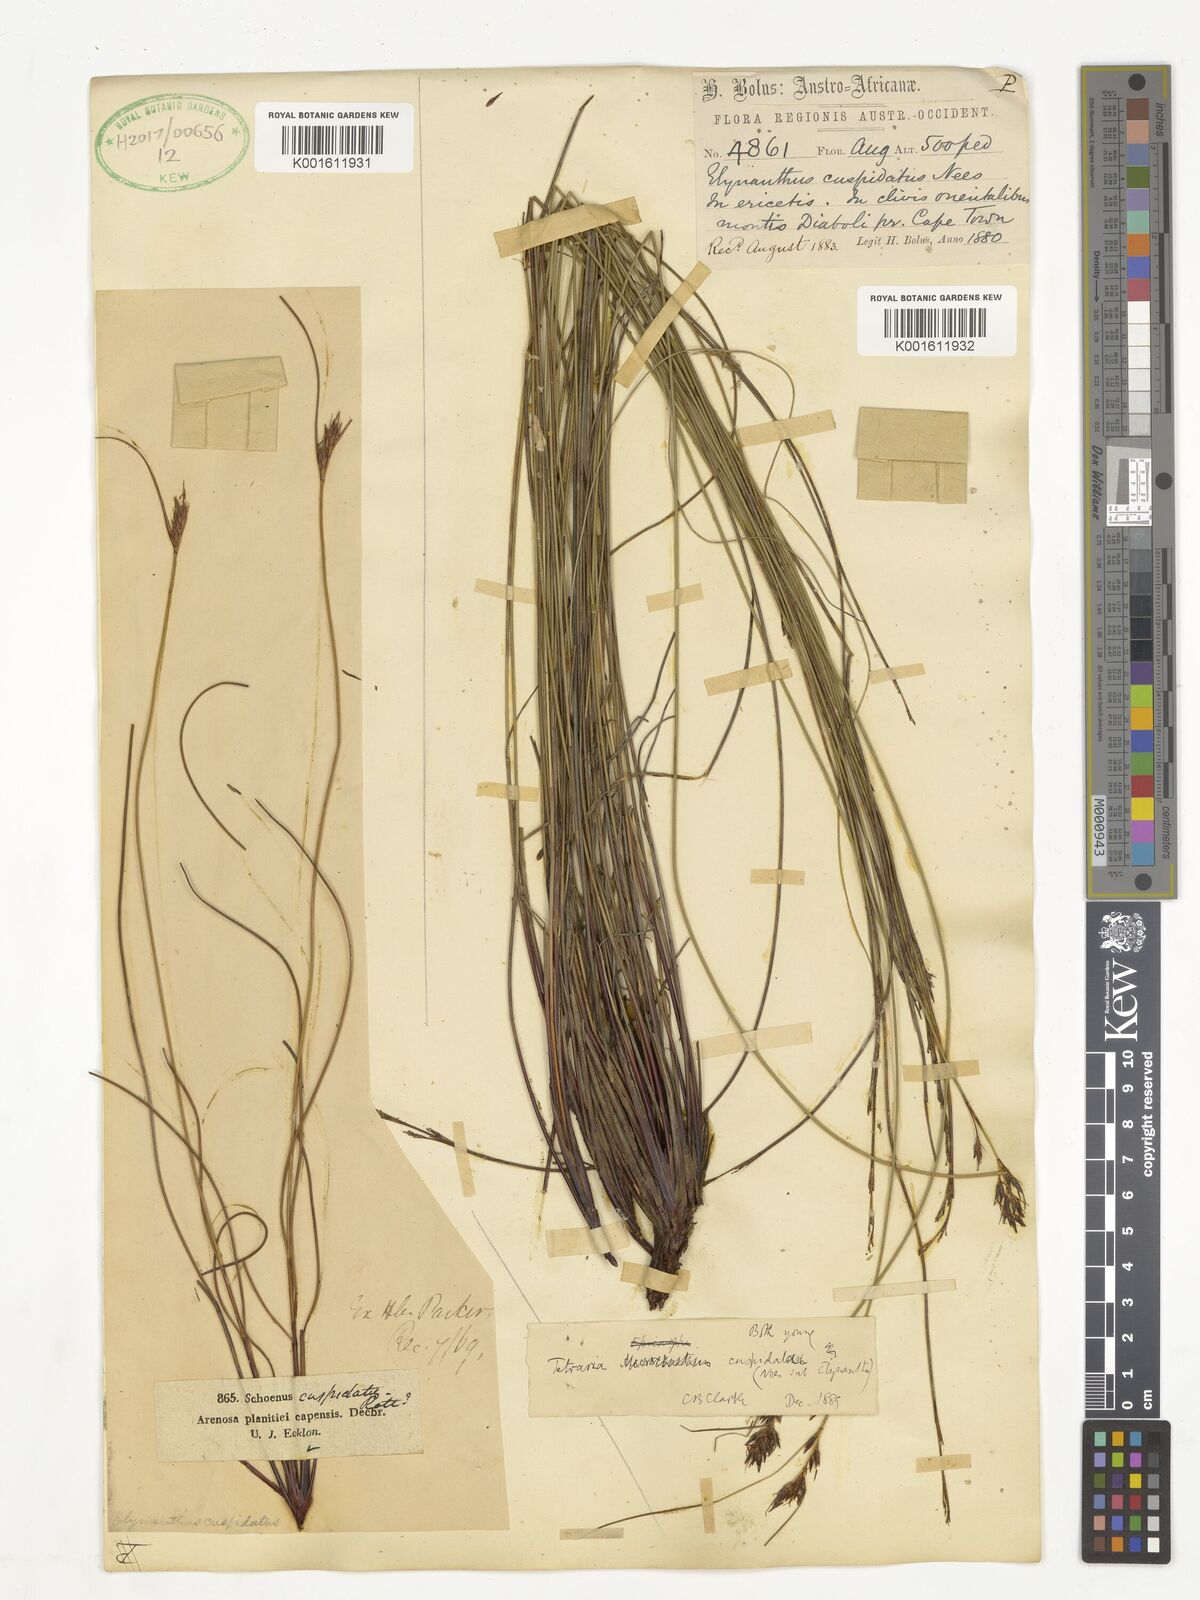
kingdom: Plantae
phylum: Tracheophyta
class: Liliopsida
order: Poales
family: Cyperaceae
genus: Schoenus
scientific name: Schoenus cuspidatus
